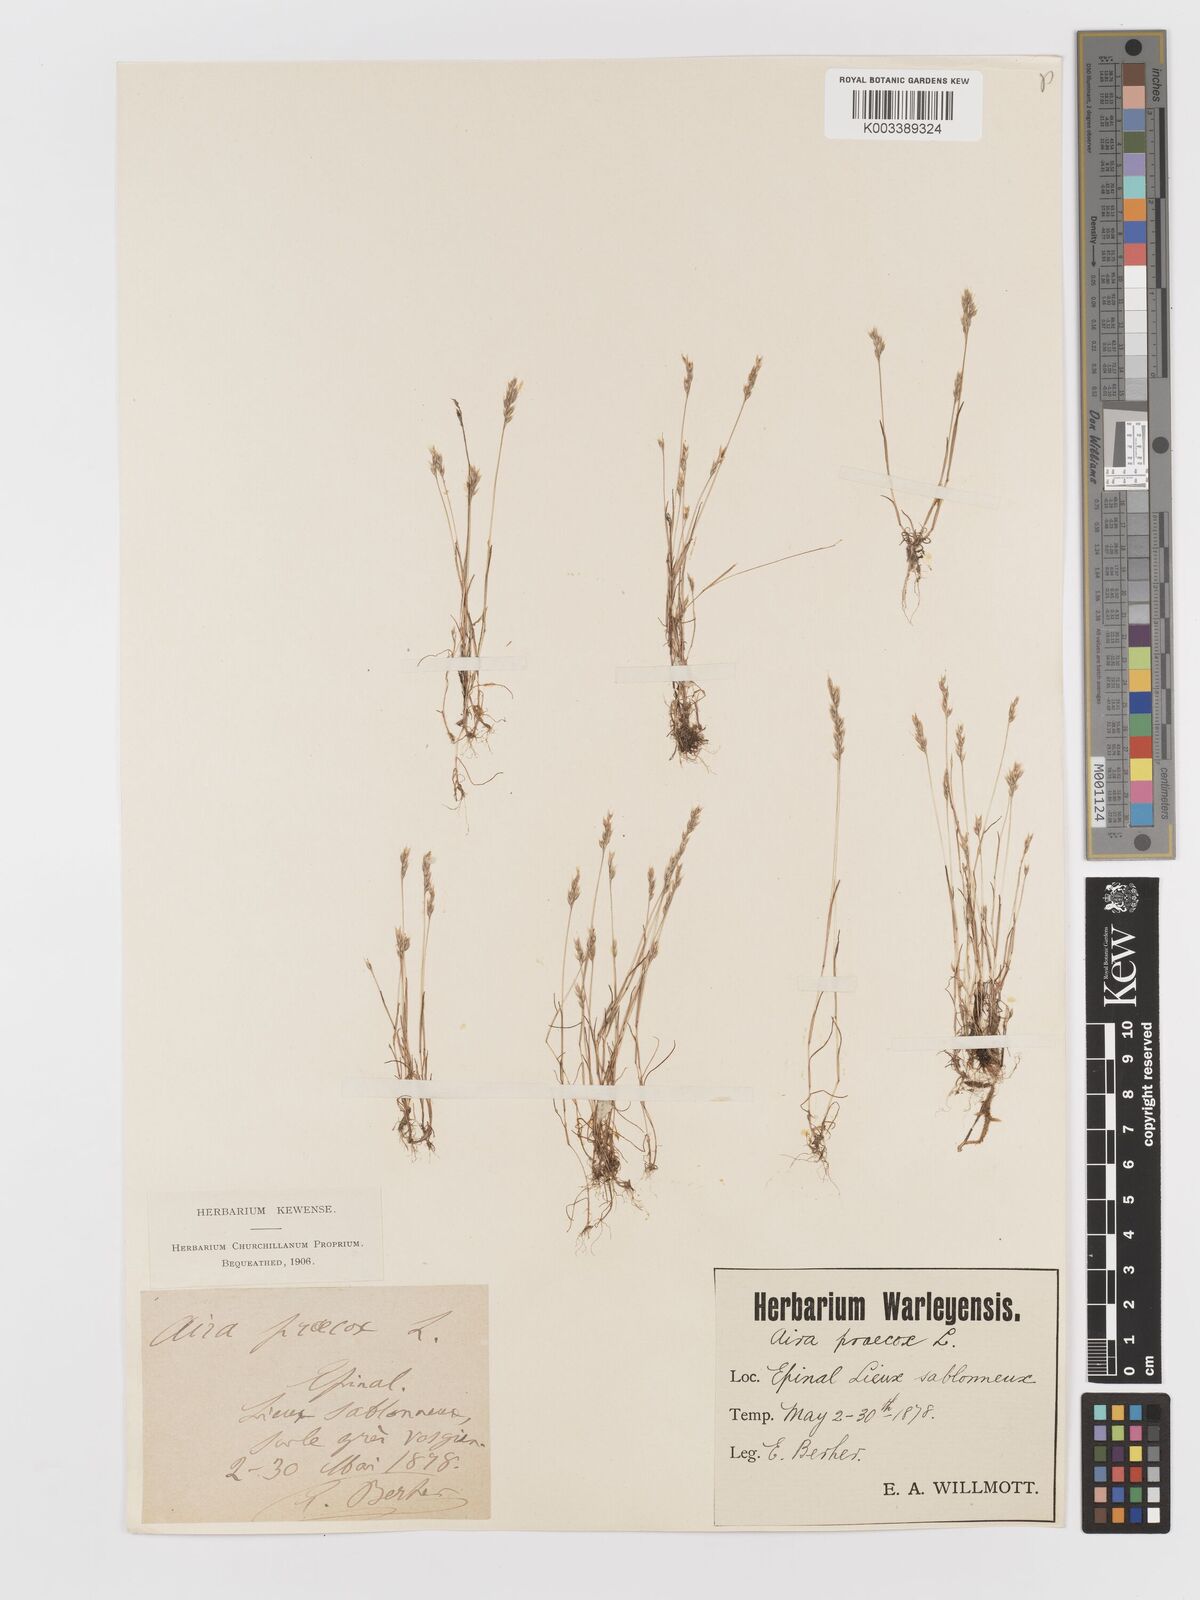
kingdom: Plantae
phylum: Tracheophyta
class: Liliopsida
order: Poales
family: Poaceae
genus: Aira
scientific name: Aira praecox
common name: Early hair-grass
